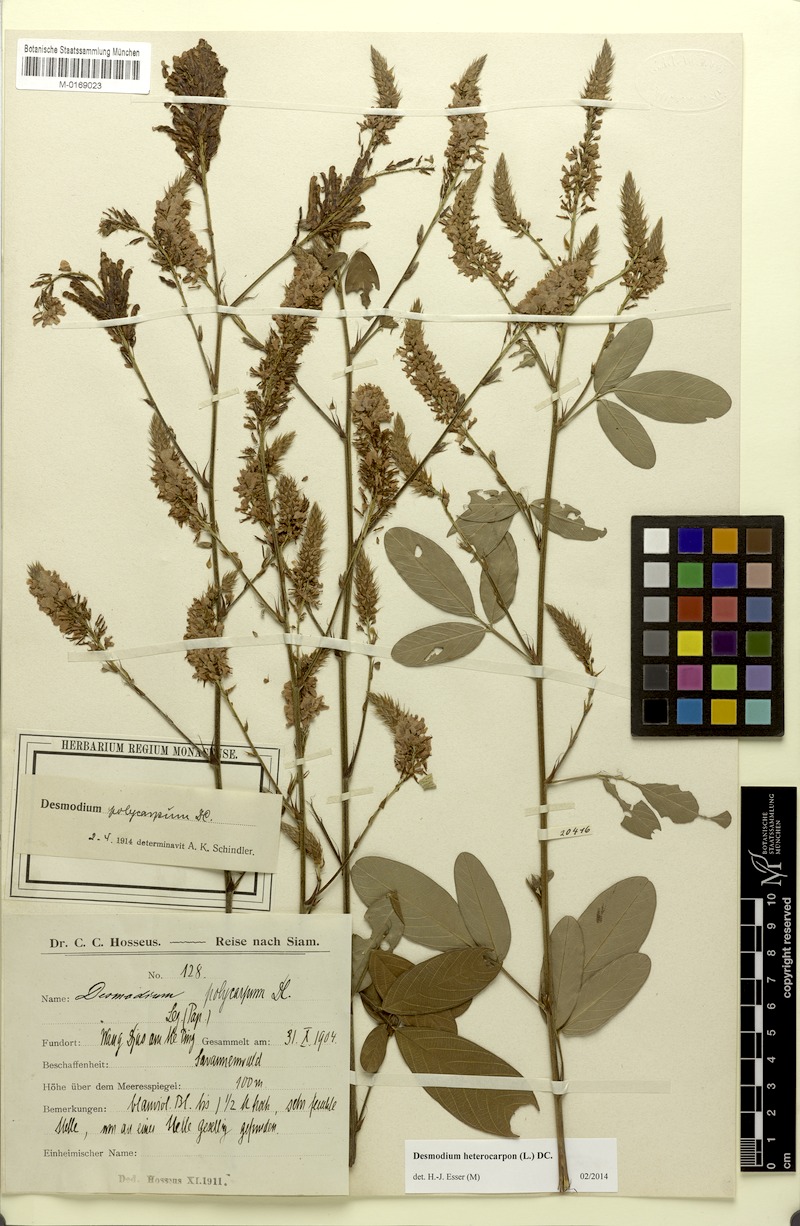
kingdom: Plantae
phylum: Tracheophyta
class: Magnoliopsida
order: Fabales
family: Fabaceae
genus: Grona
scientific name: Grona heterocarpos
